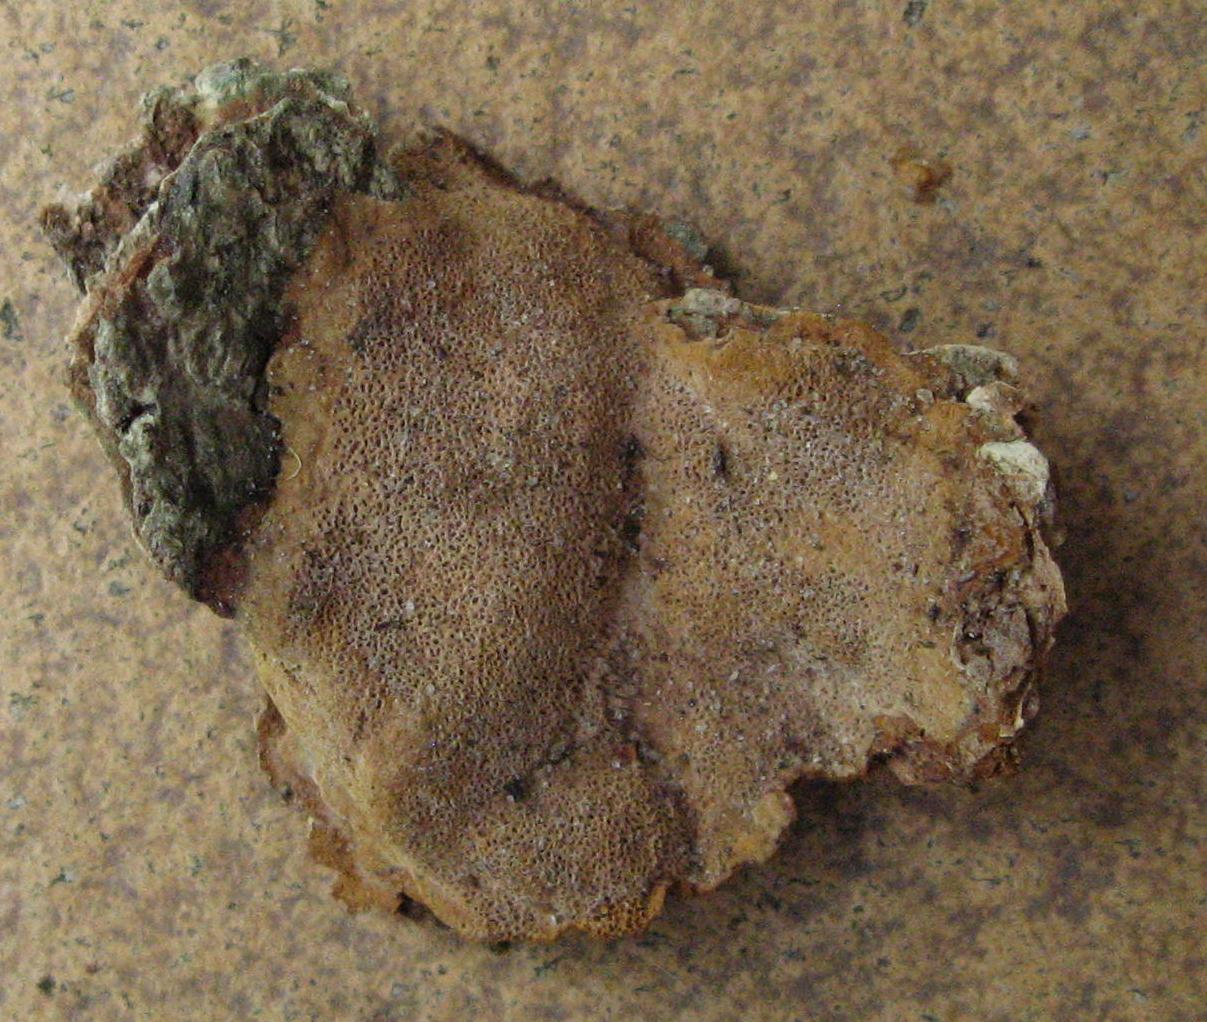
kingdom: Fungi
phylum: Basidiomycota
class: Agaricomycetes
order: Hymenochaetales
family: Hymenochaetaceae
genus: Fuscoporia
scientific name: Fuscoporia ferrea
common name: skorpe-ildporesvamp
